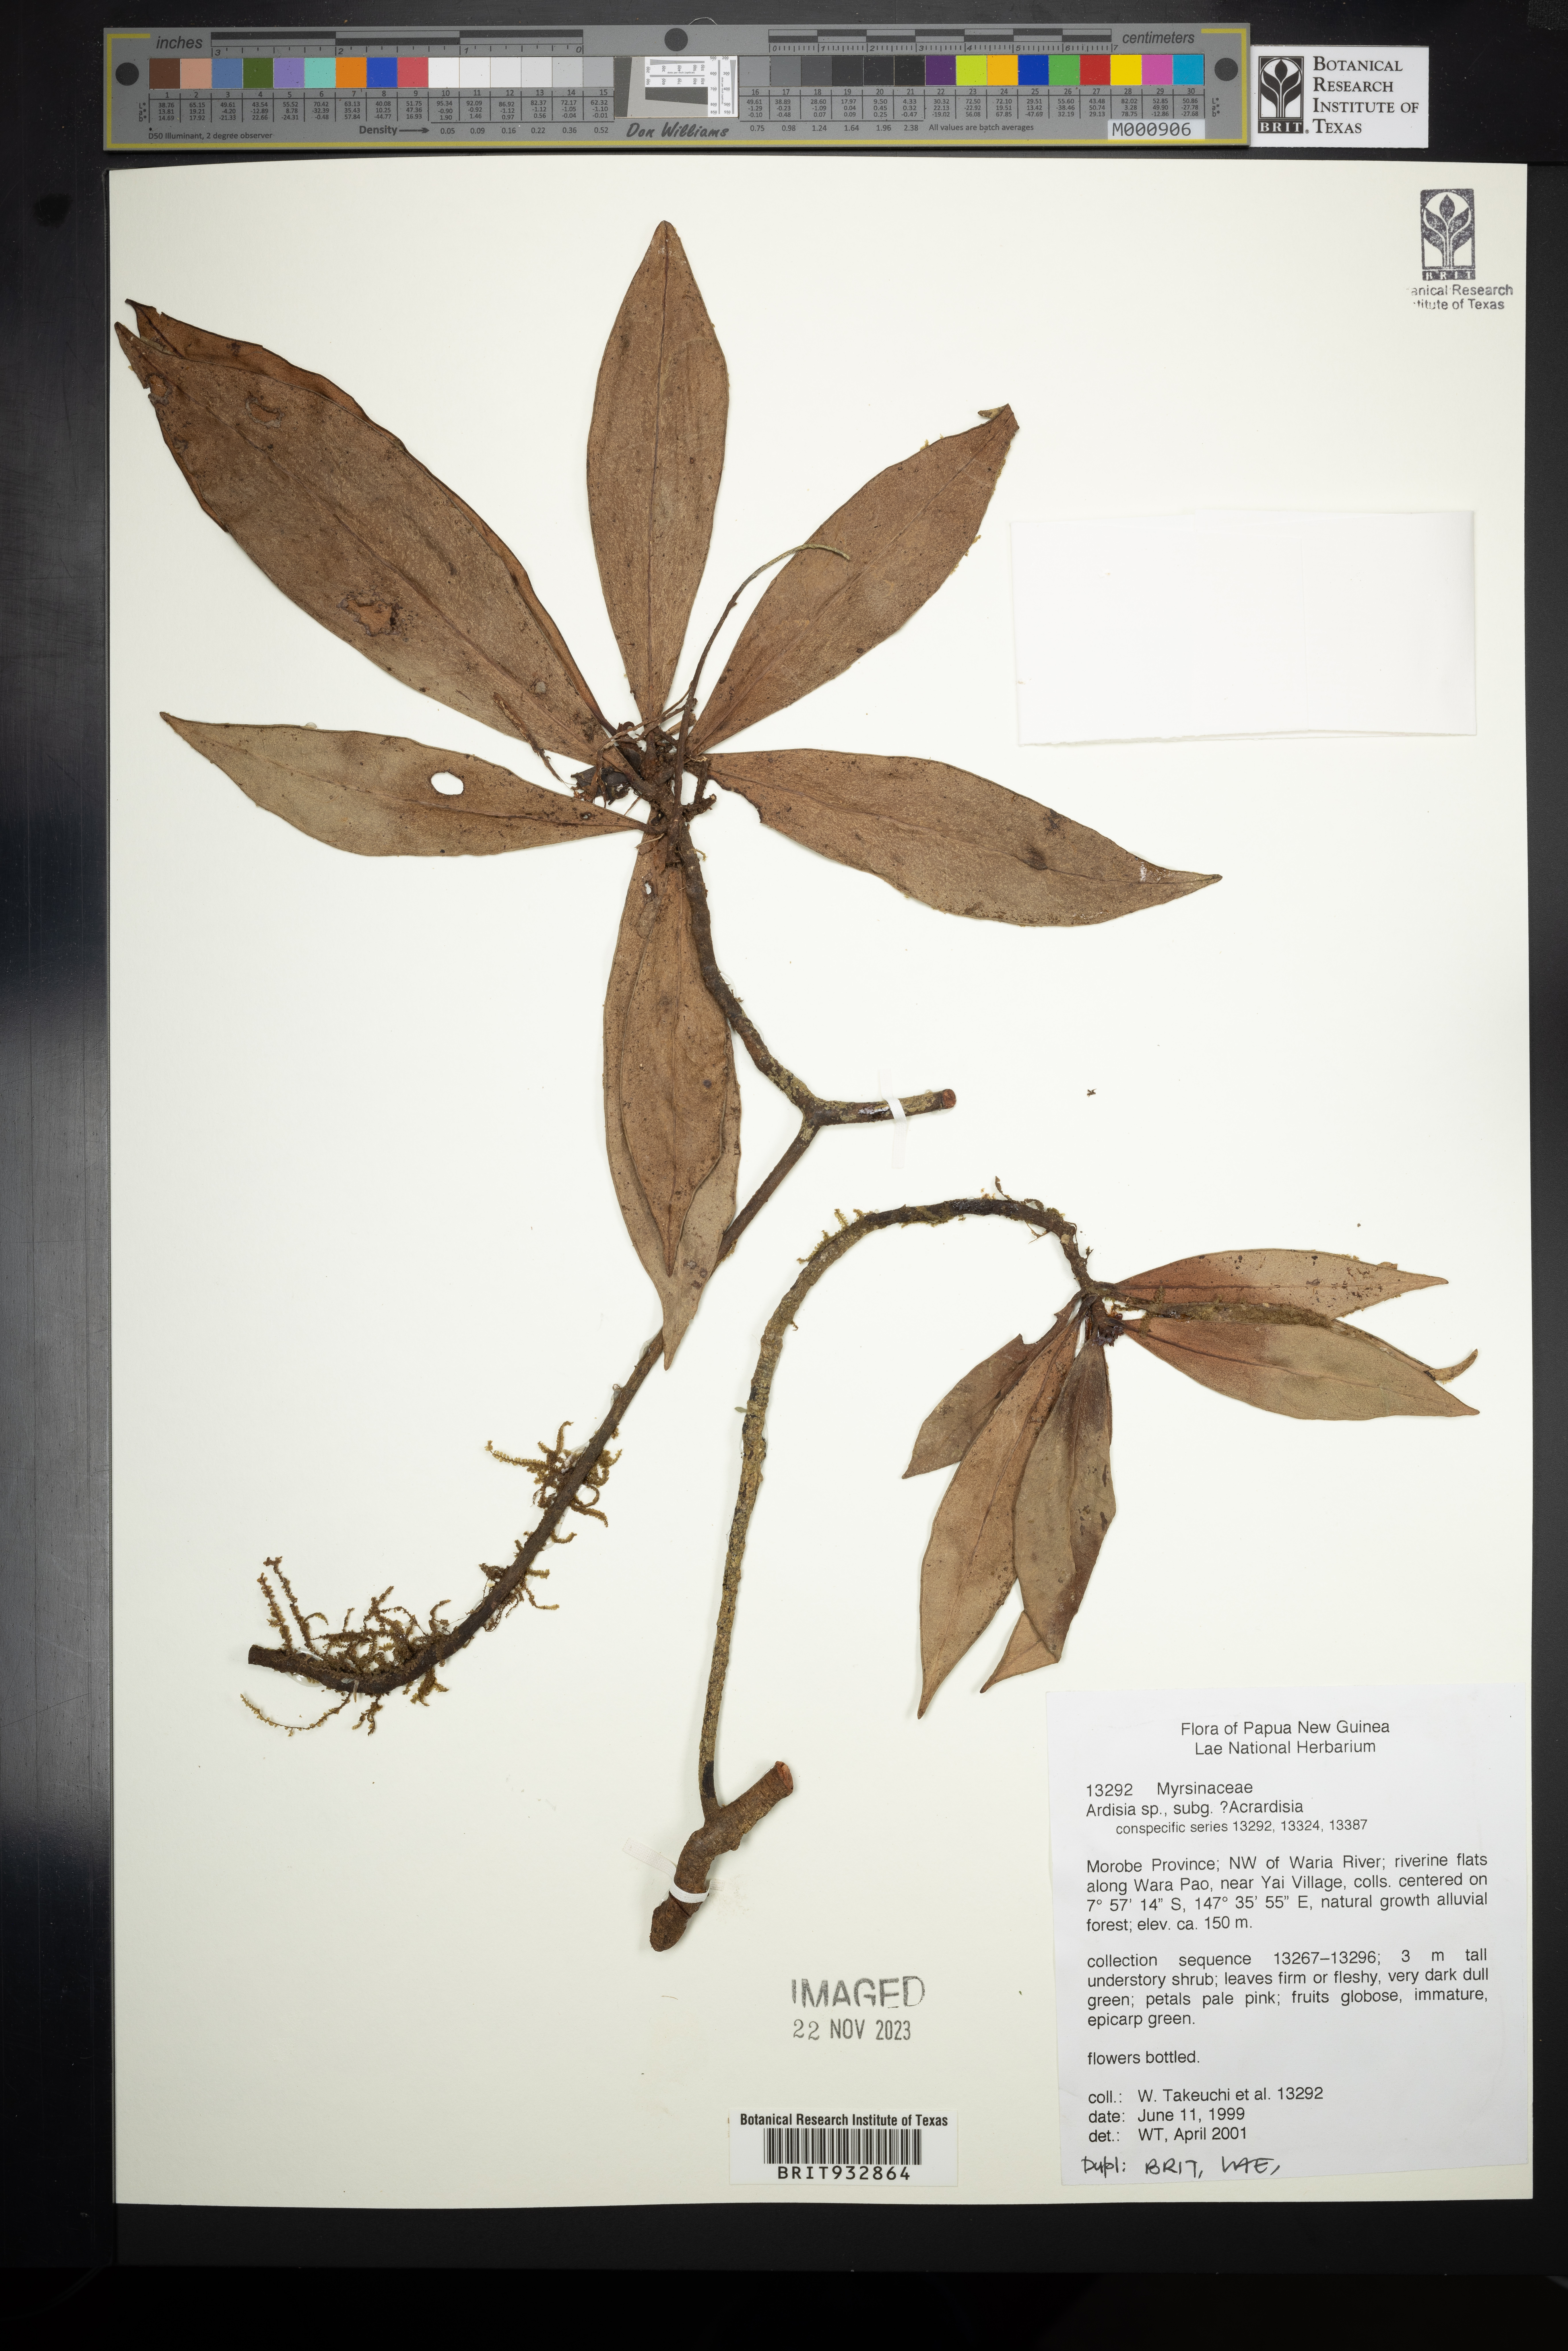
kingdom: Plantae
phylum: Tracheophyta
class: Magnoliopsida
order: Ericales
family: Primulaceae
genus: Ardisia
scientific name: Ardisia
